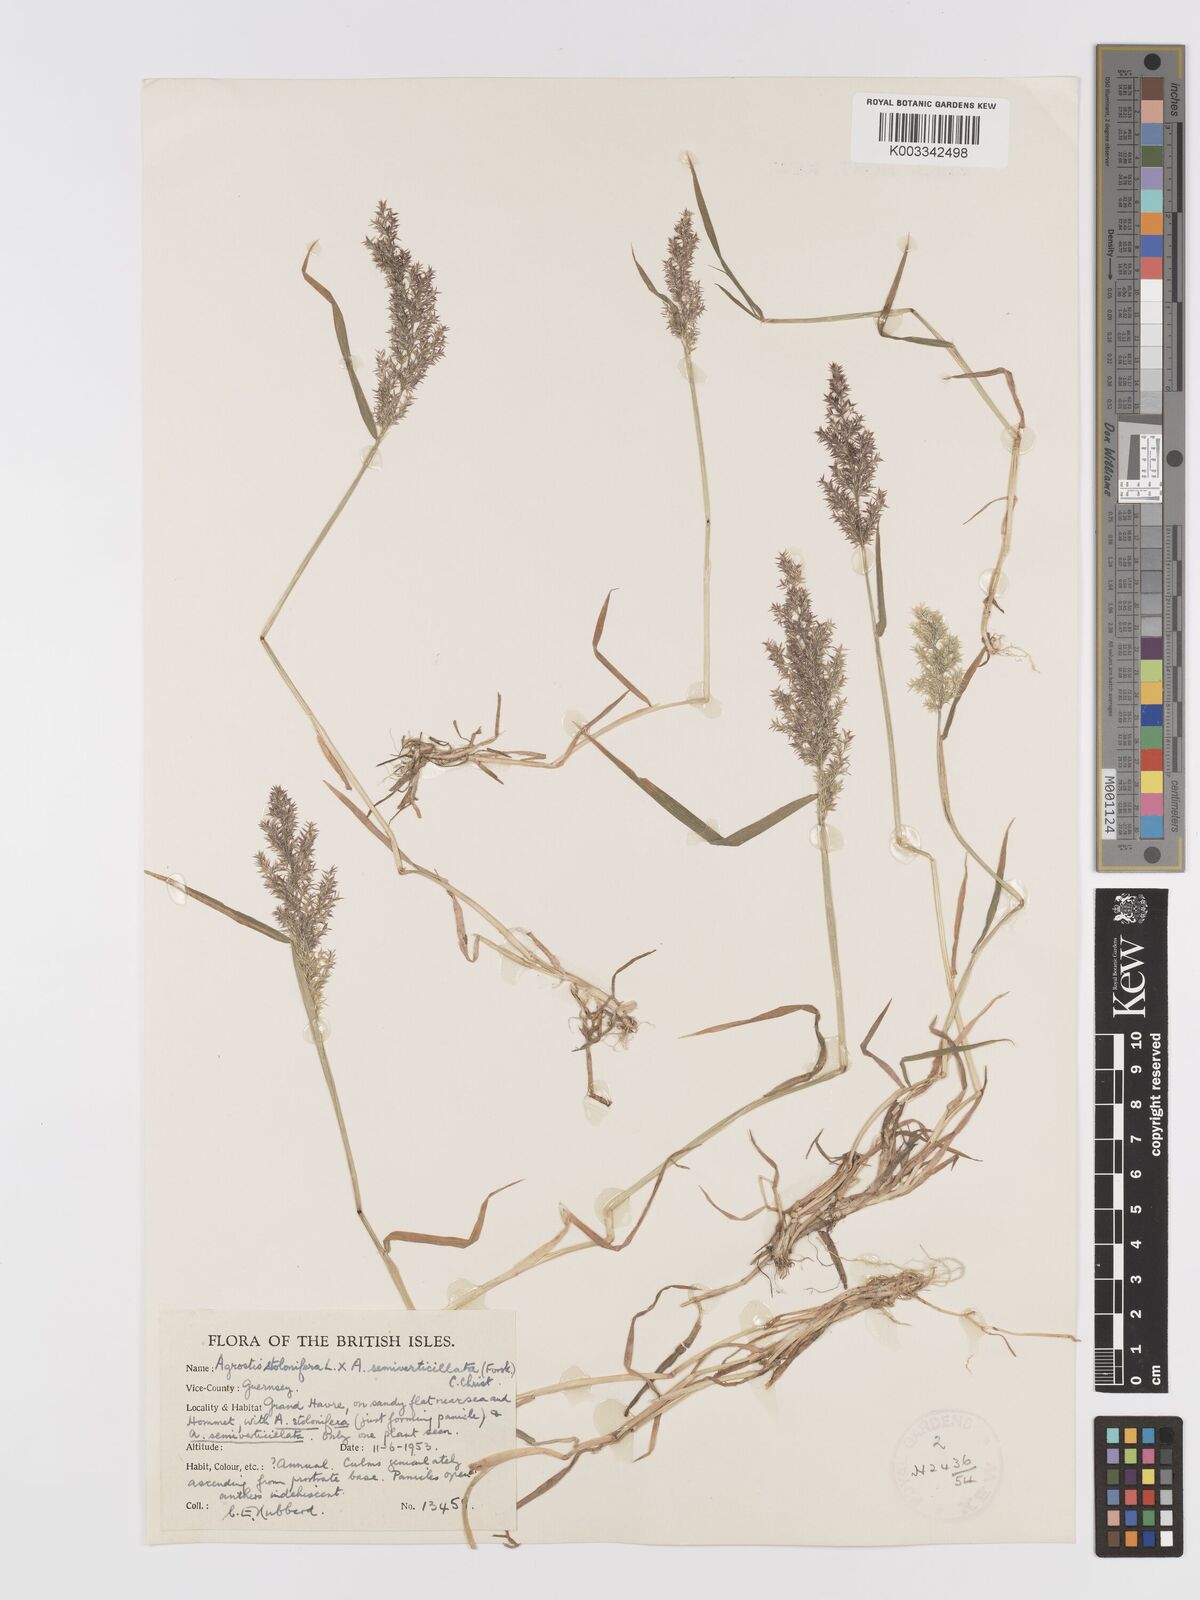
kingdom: Plantae
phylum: Tracheophyta
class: Liliopsida
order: Poales
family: Poaceae
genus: Agrostis
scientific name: Agrostis gigantea
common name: Black bent
